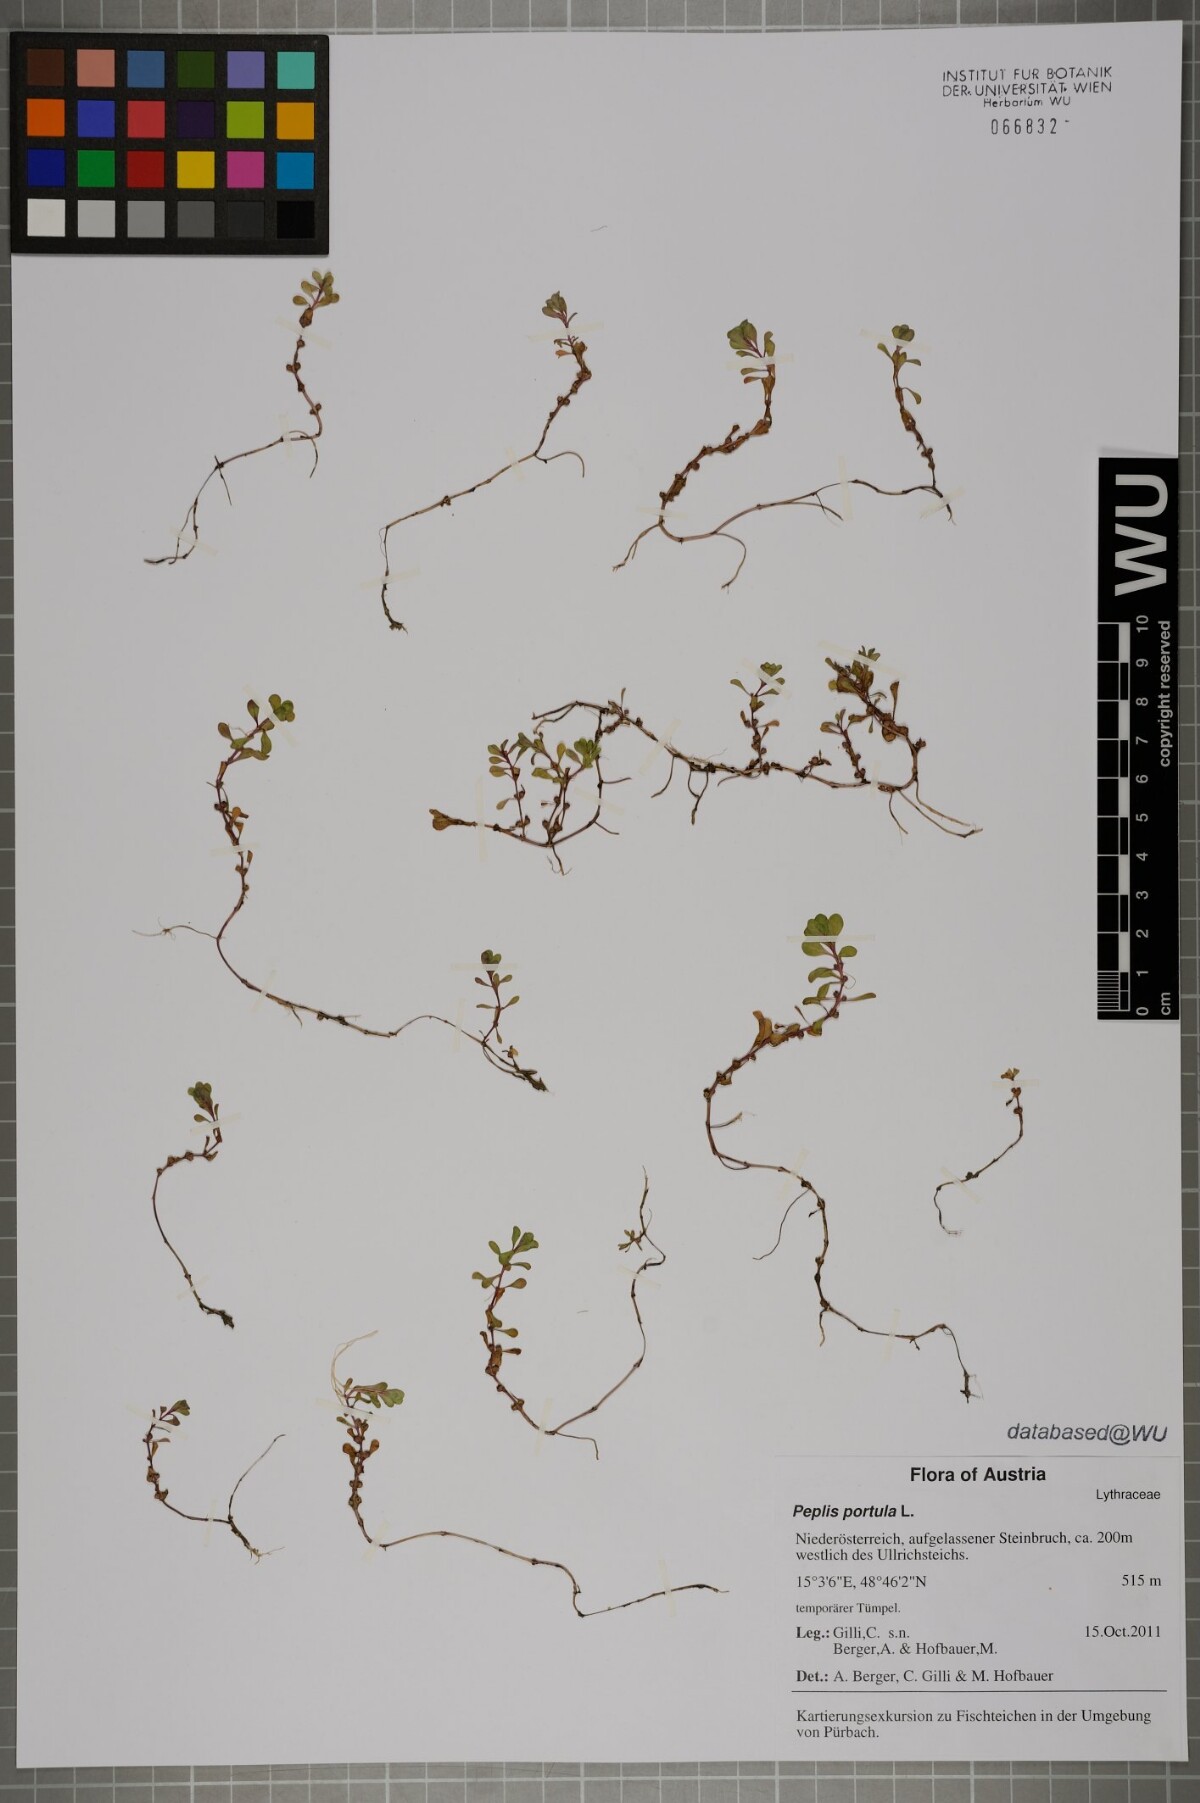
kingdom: Plantae
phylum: Tracheophyta
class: Magnoliopsida
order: Myrtales
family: Lythraceae
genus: Lythrum
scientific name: Lythrum portula
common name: Water purslane
